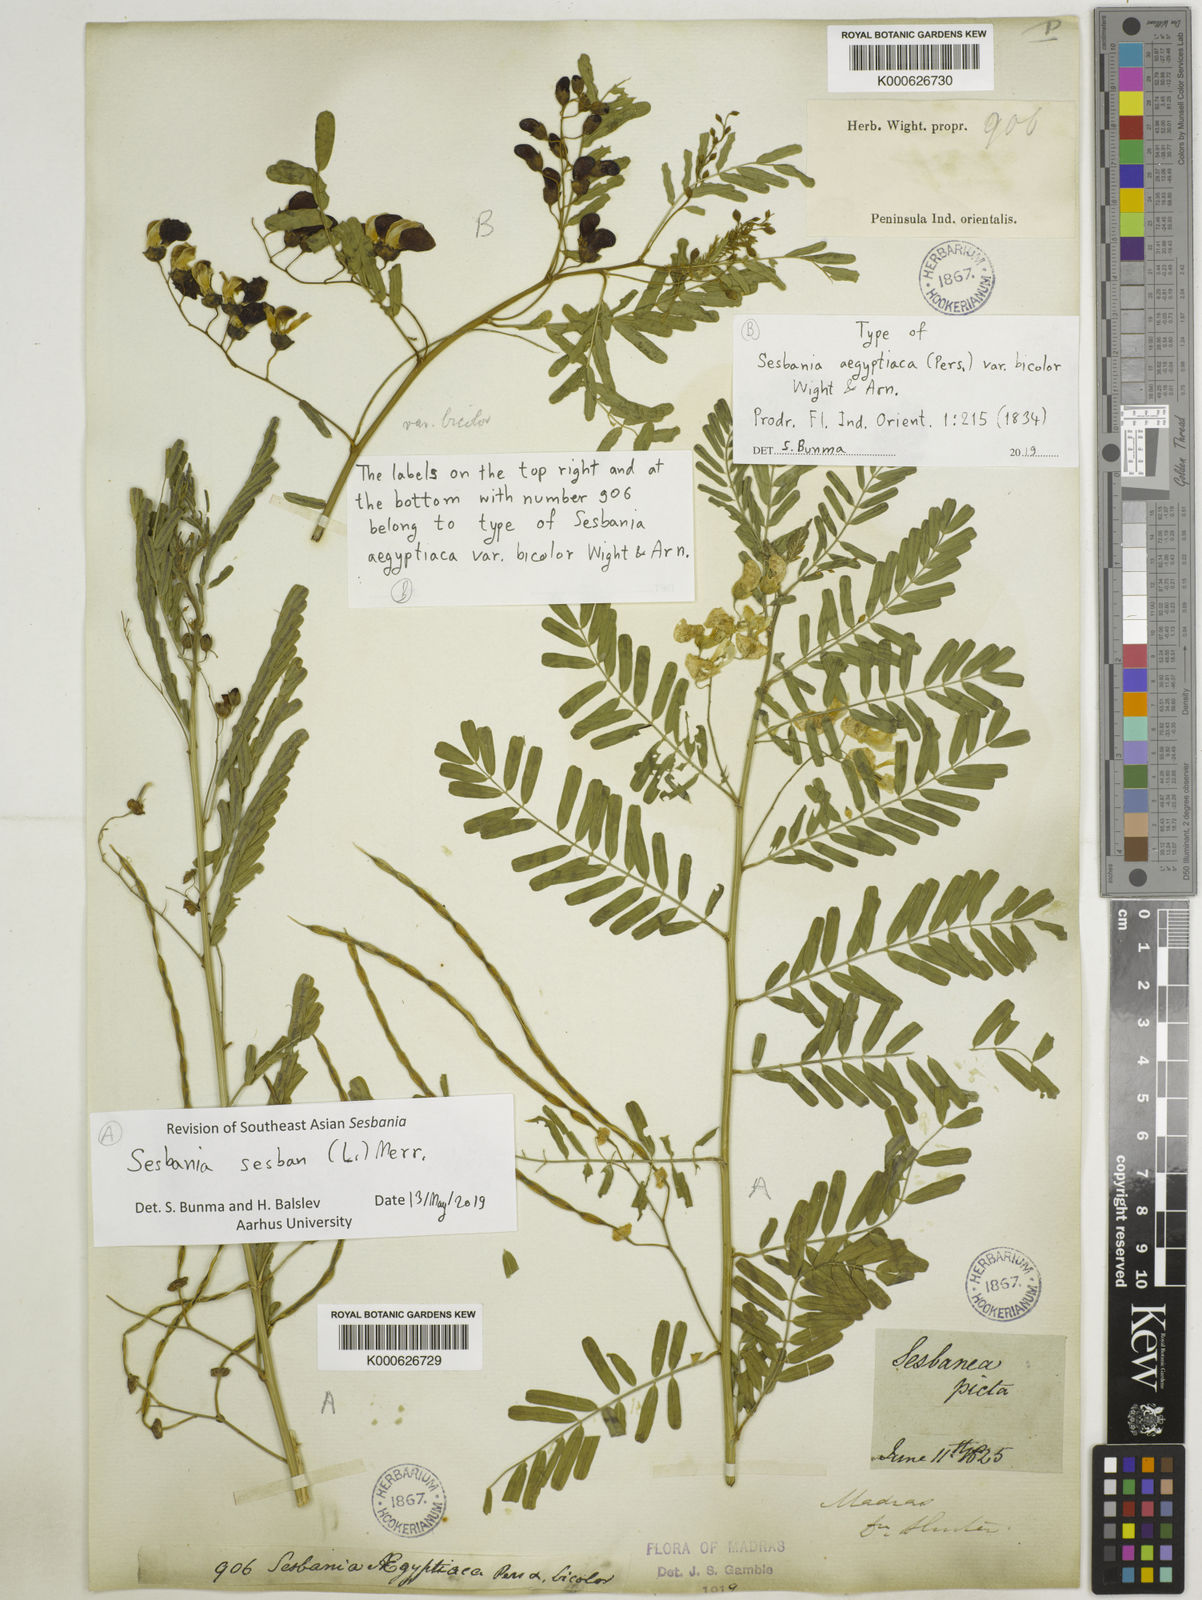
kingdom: Plantae
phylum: Tracheophyta
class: Magnoliopsida
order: Fabales
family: Fabaceae
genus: Sesbania
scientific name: Sesbania sesban
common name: Egyptian sesban
